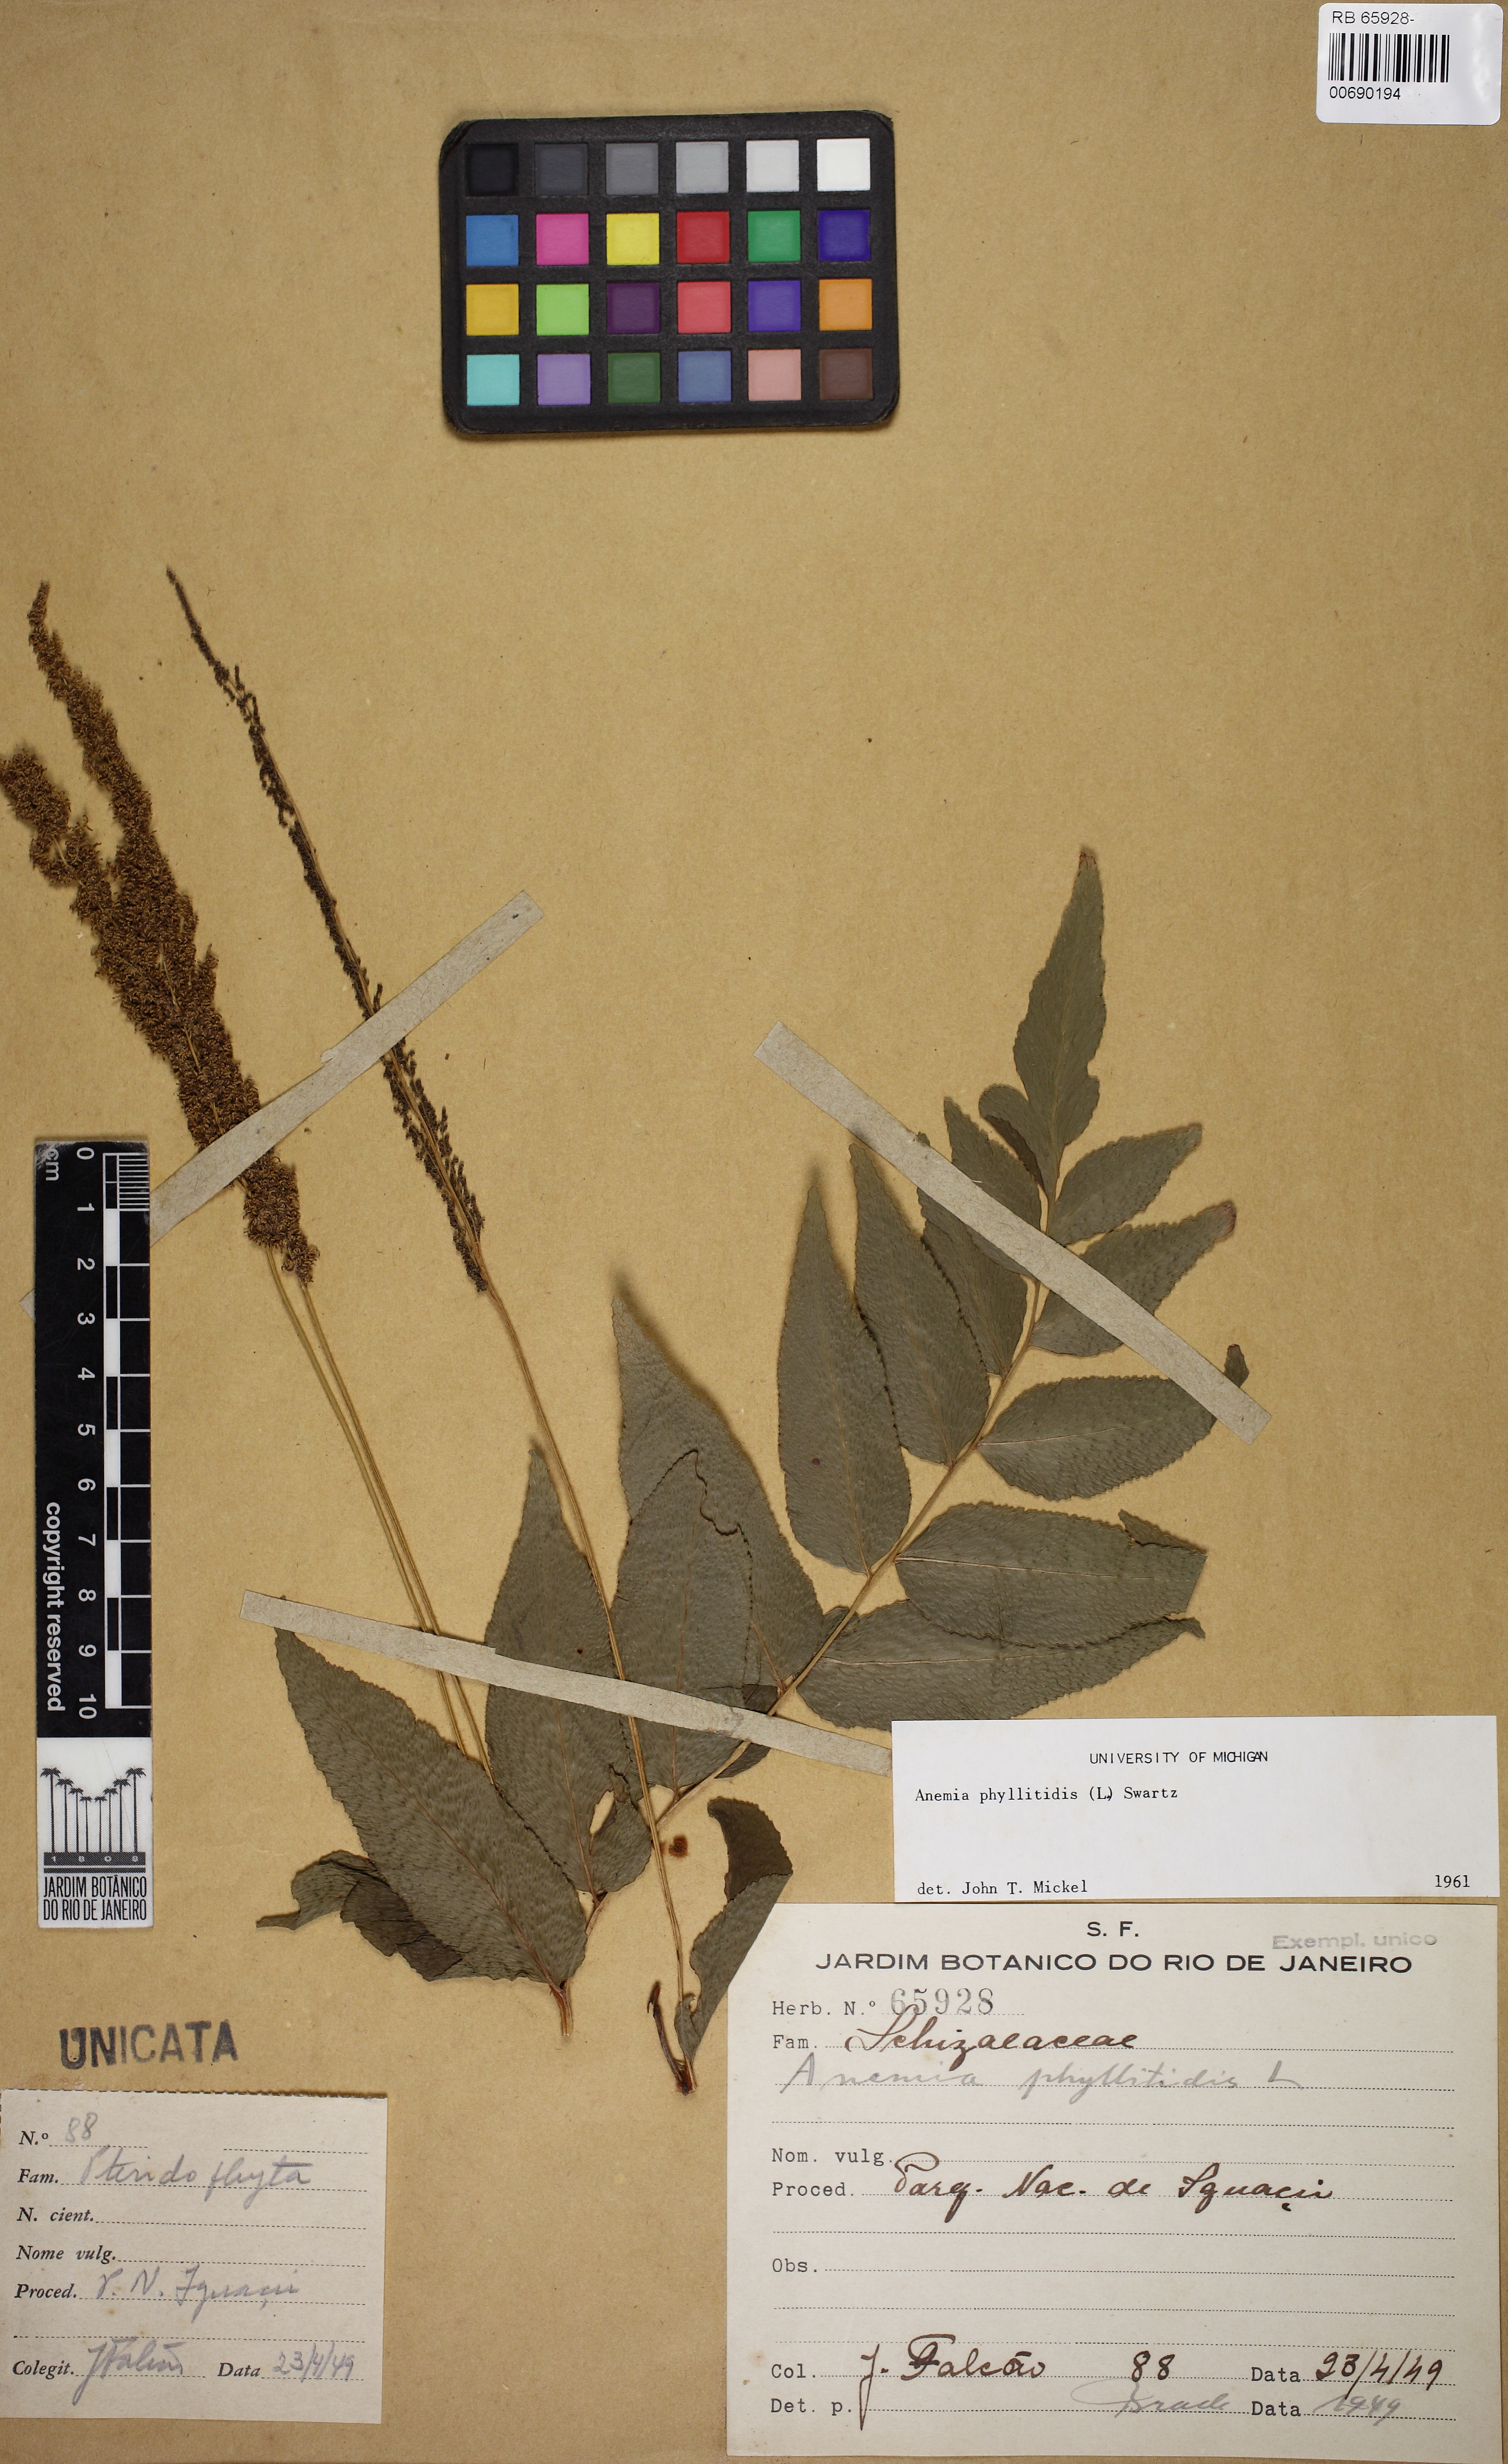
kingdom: Plantae
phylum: Tracheophyta
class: Polypodiopsida
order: Schizaeales
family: Anemiaceae
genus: Anemia
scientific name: Anemia phyllitidis
